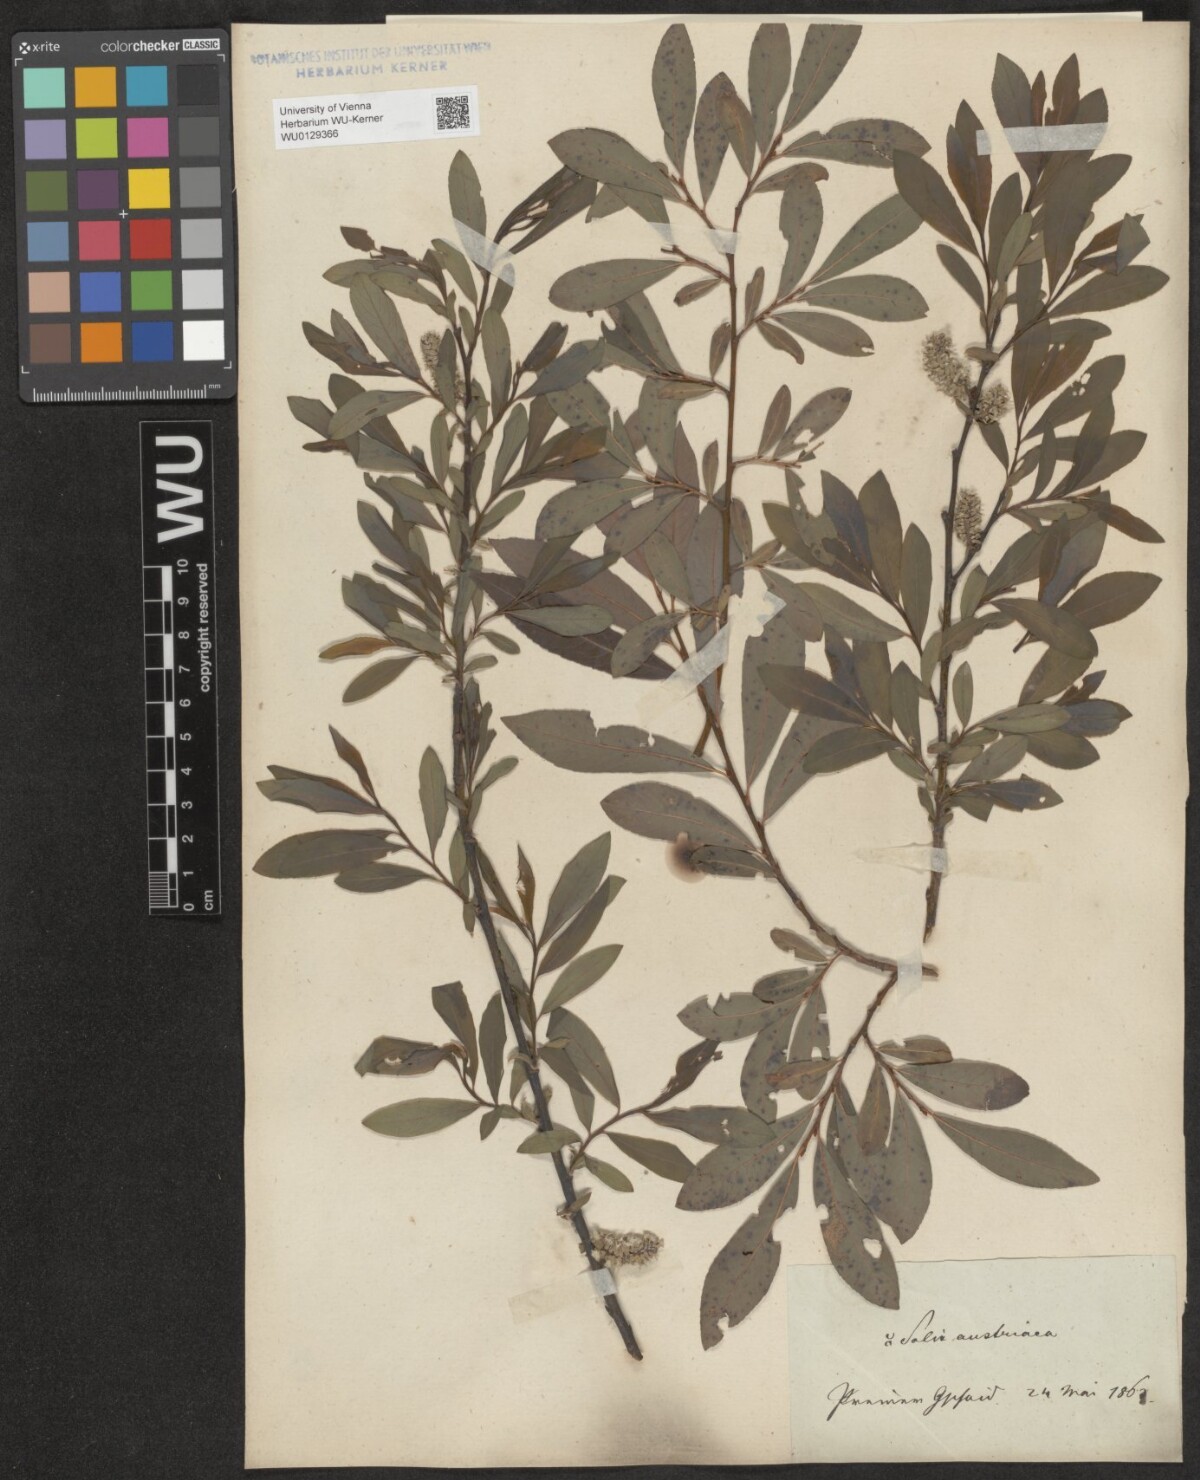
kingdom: Plantae
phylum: Tracheophyta
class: Magnoliopsida
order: Malpighiales
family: Salicaceae
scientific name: Salicaceae
